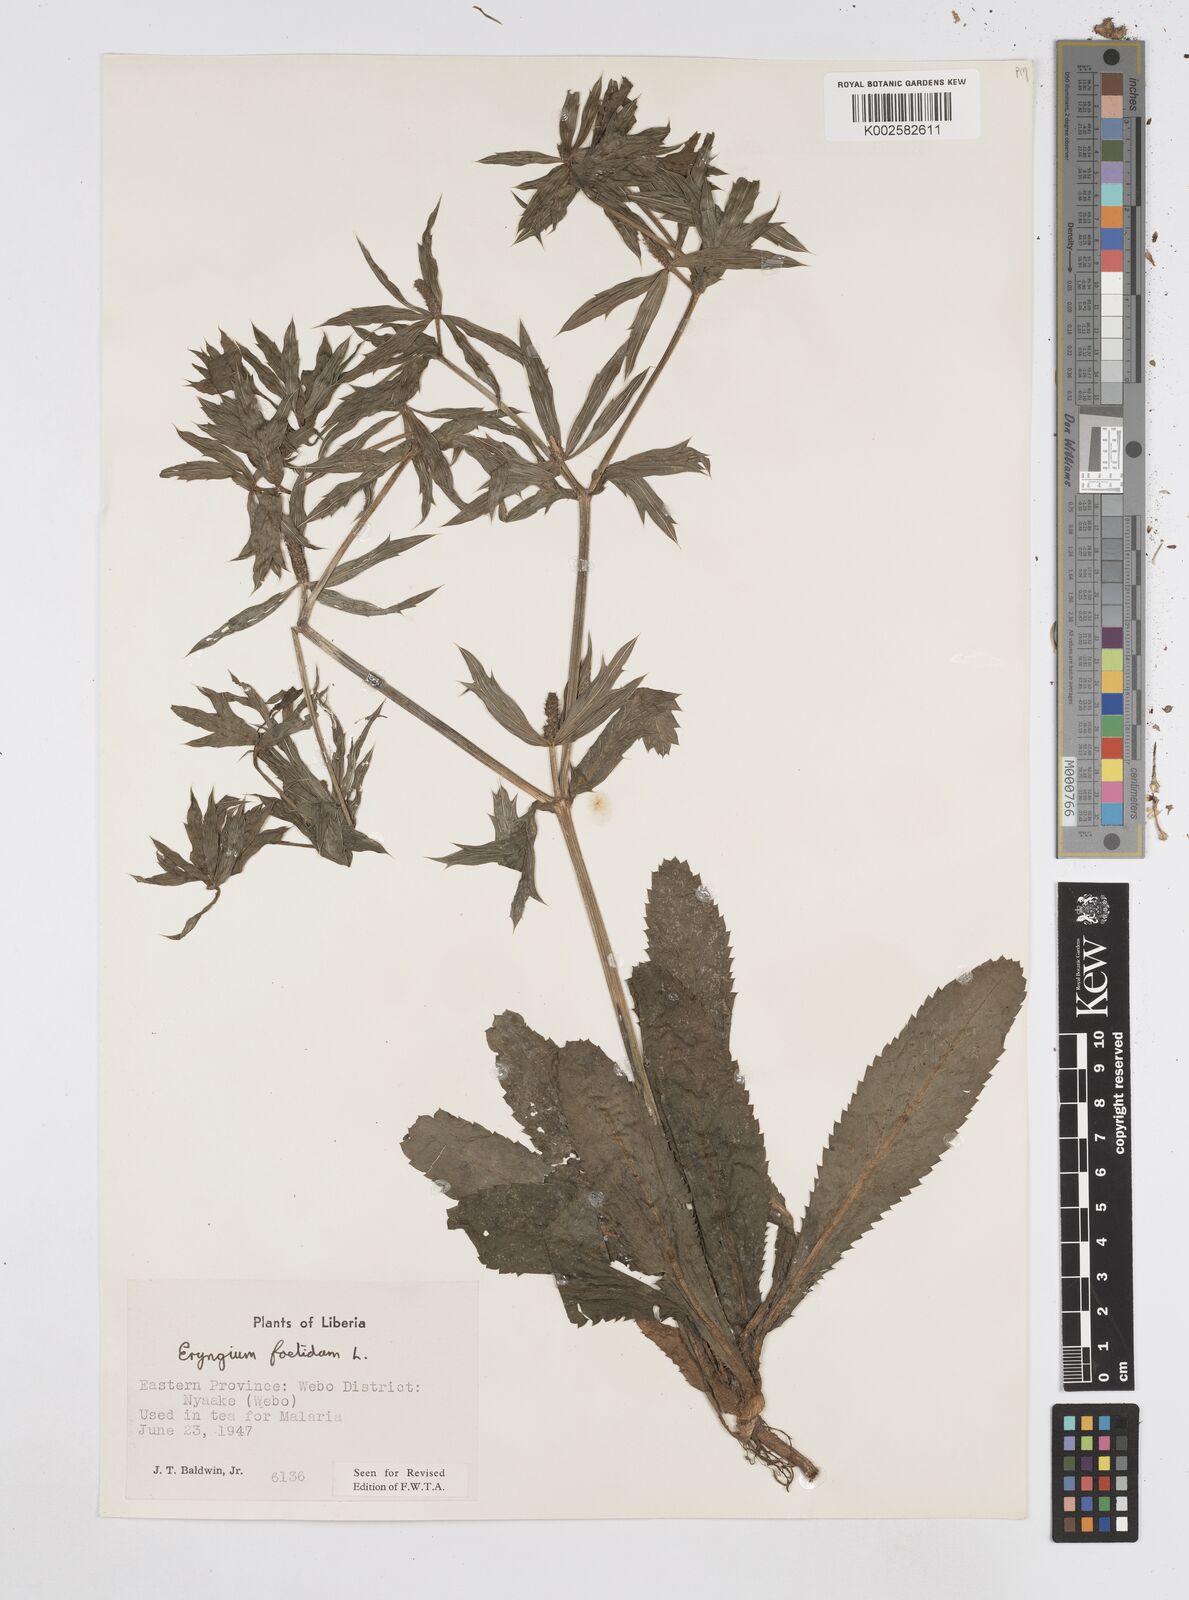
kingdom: Plantae
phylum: Tracheophyta
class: Magnoliopsida
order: Apiales
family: Apiaceae
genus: Eryngium
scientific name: Eryngium foetidum
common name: Fitweed
